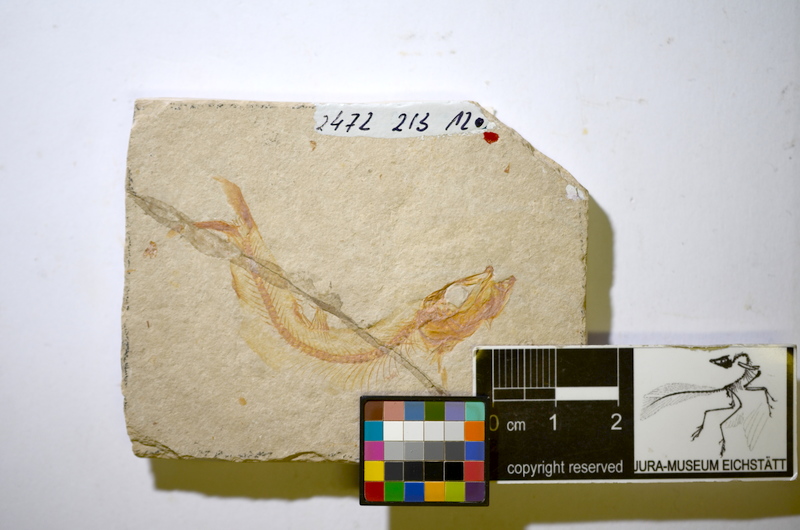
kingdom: Animalia
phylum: Chordata
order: Salmoniformes
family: Orthogonikleithridae
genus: Leptolepides
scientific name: Leptolepides sprattiformis
